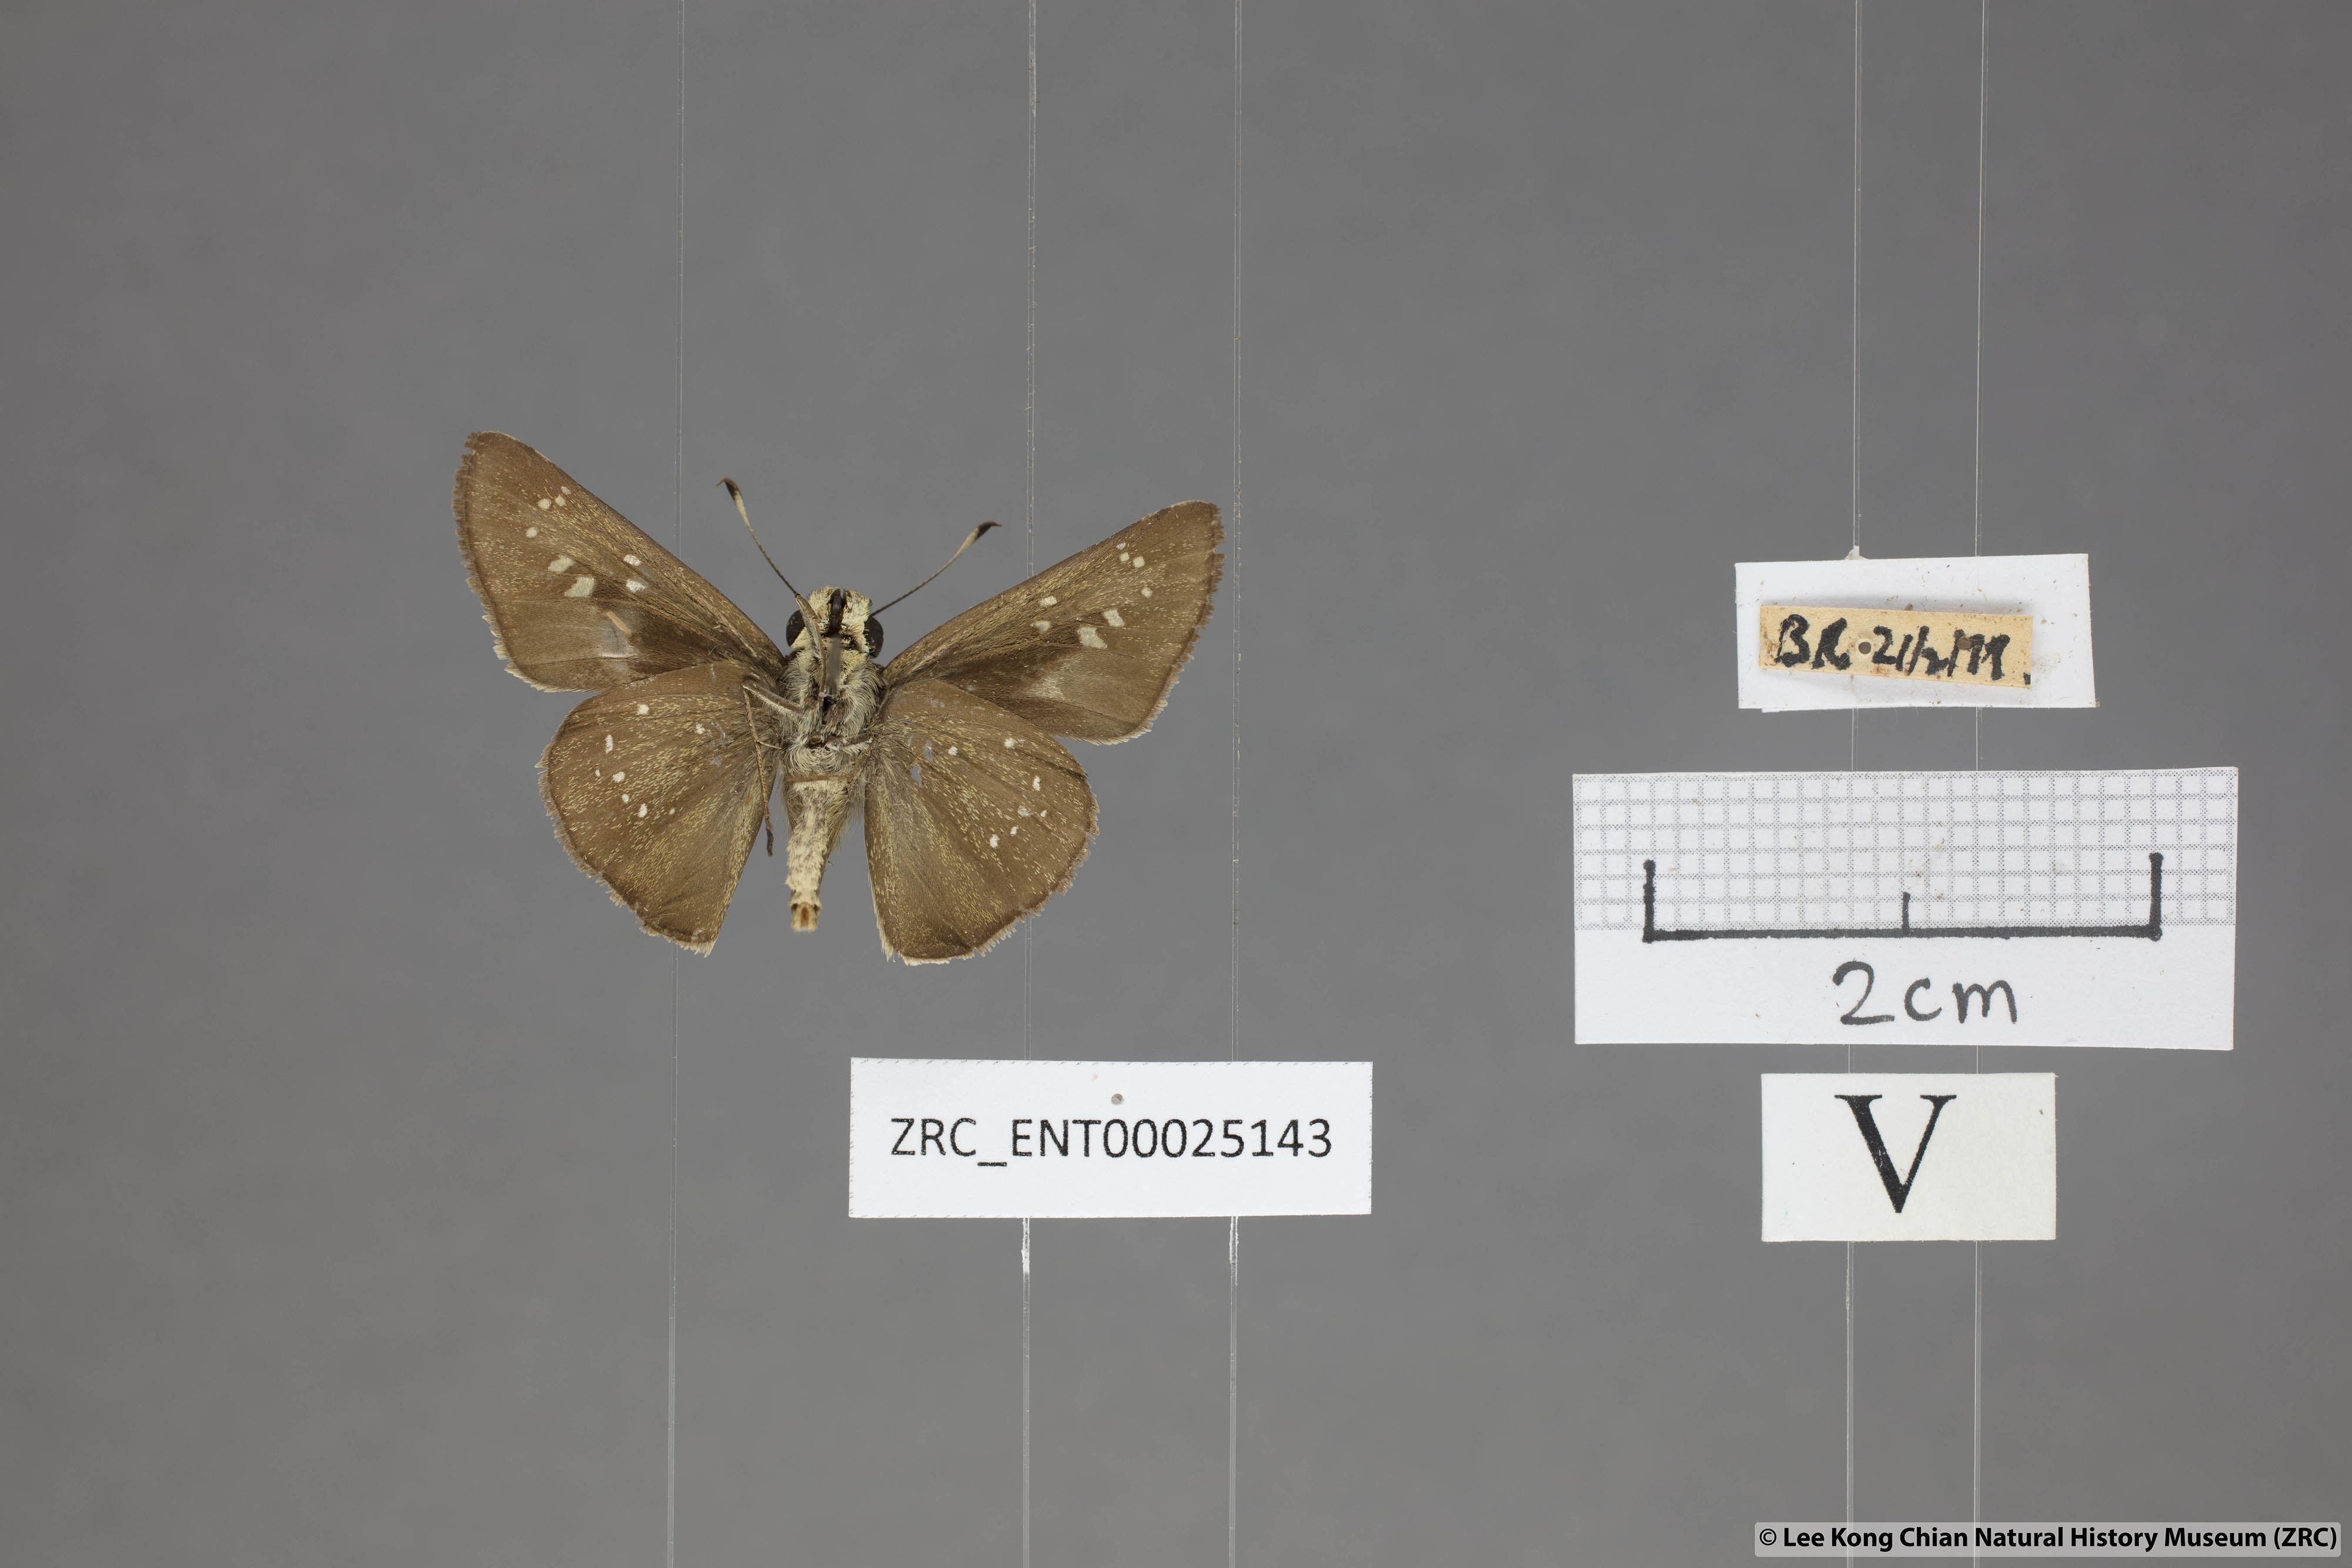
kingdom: Animalia
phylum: Arthropoda
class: Insecta
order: Lepidoptera
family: Hesperiidae
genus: Pelopidas
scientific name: Pelopidas agna
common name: Little branded swift
